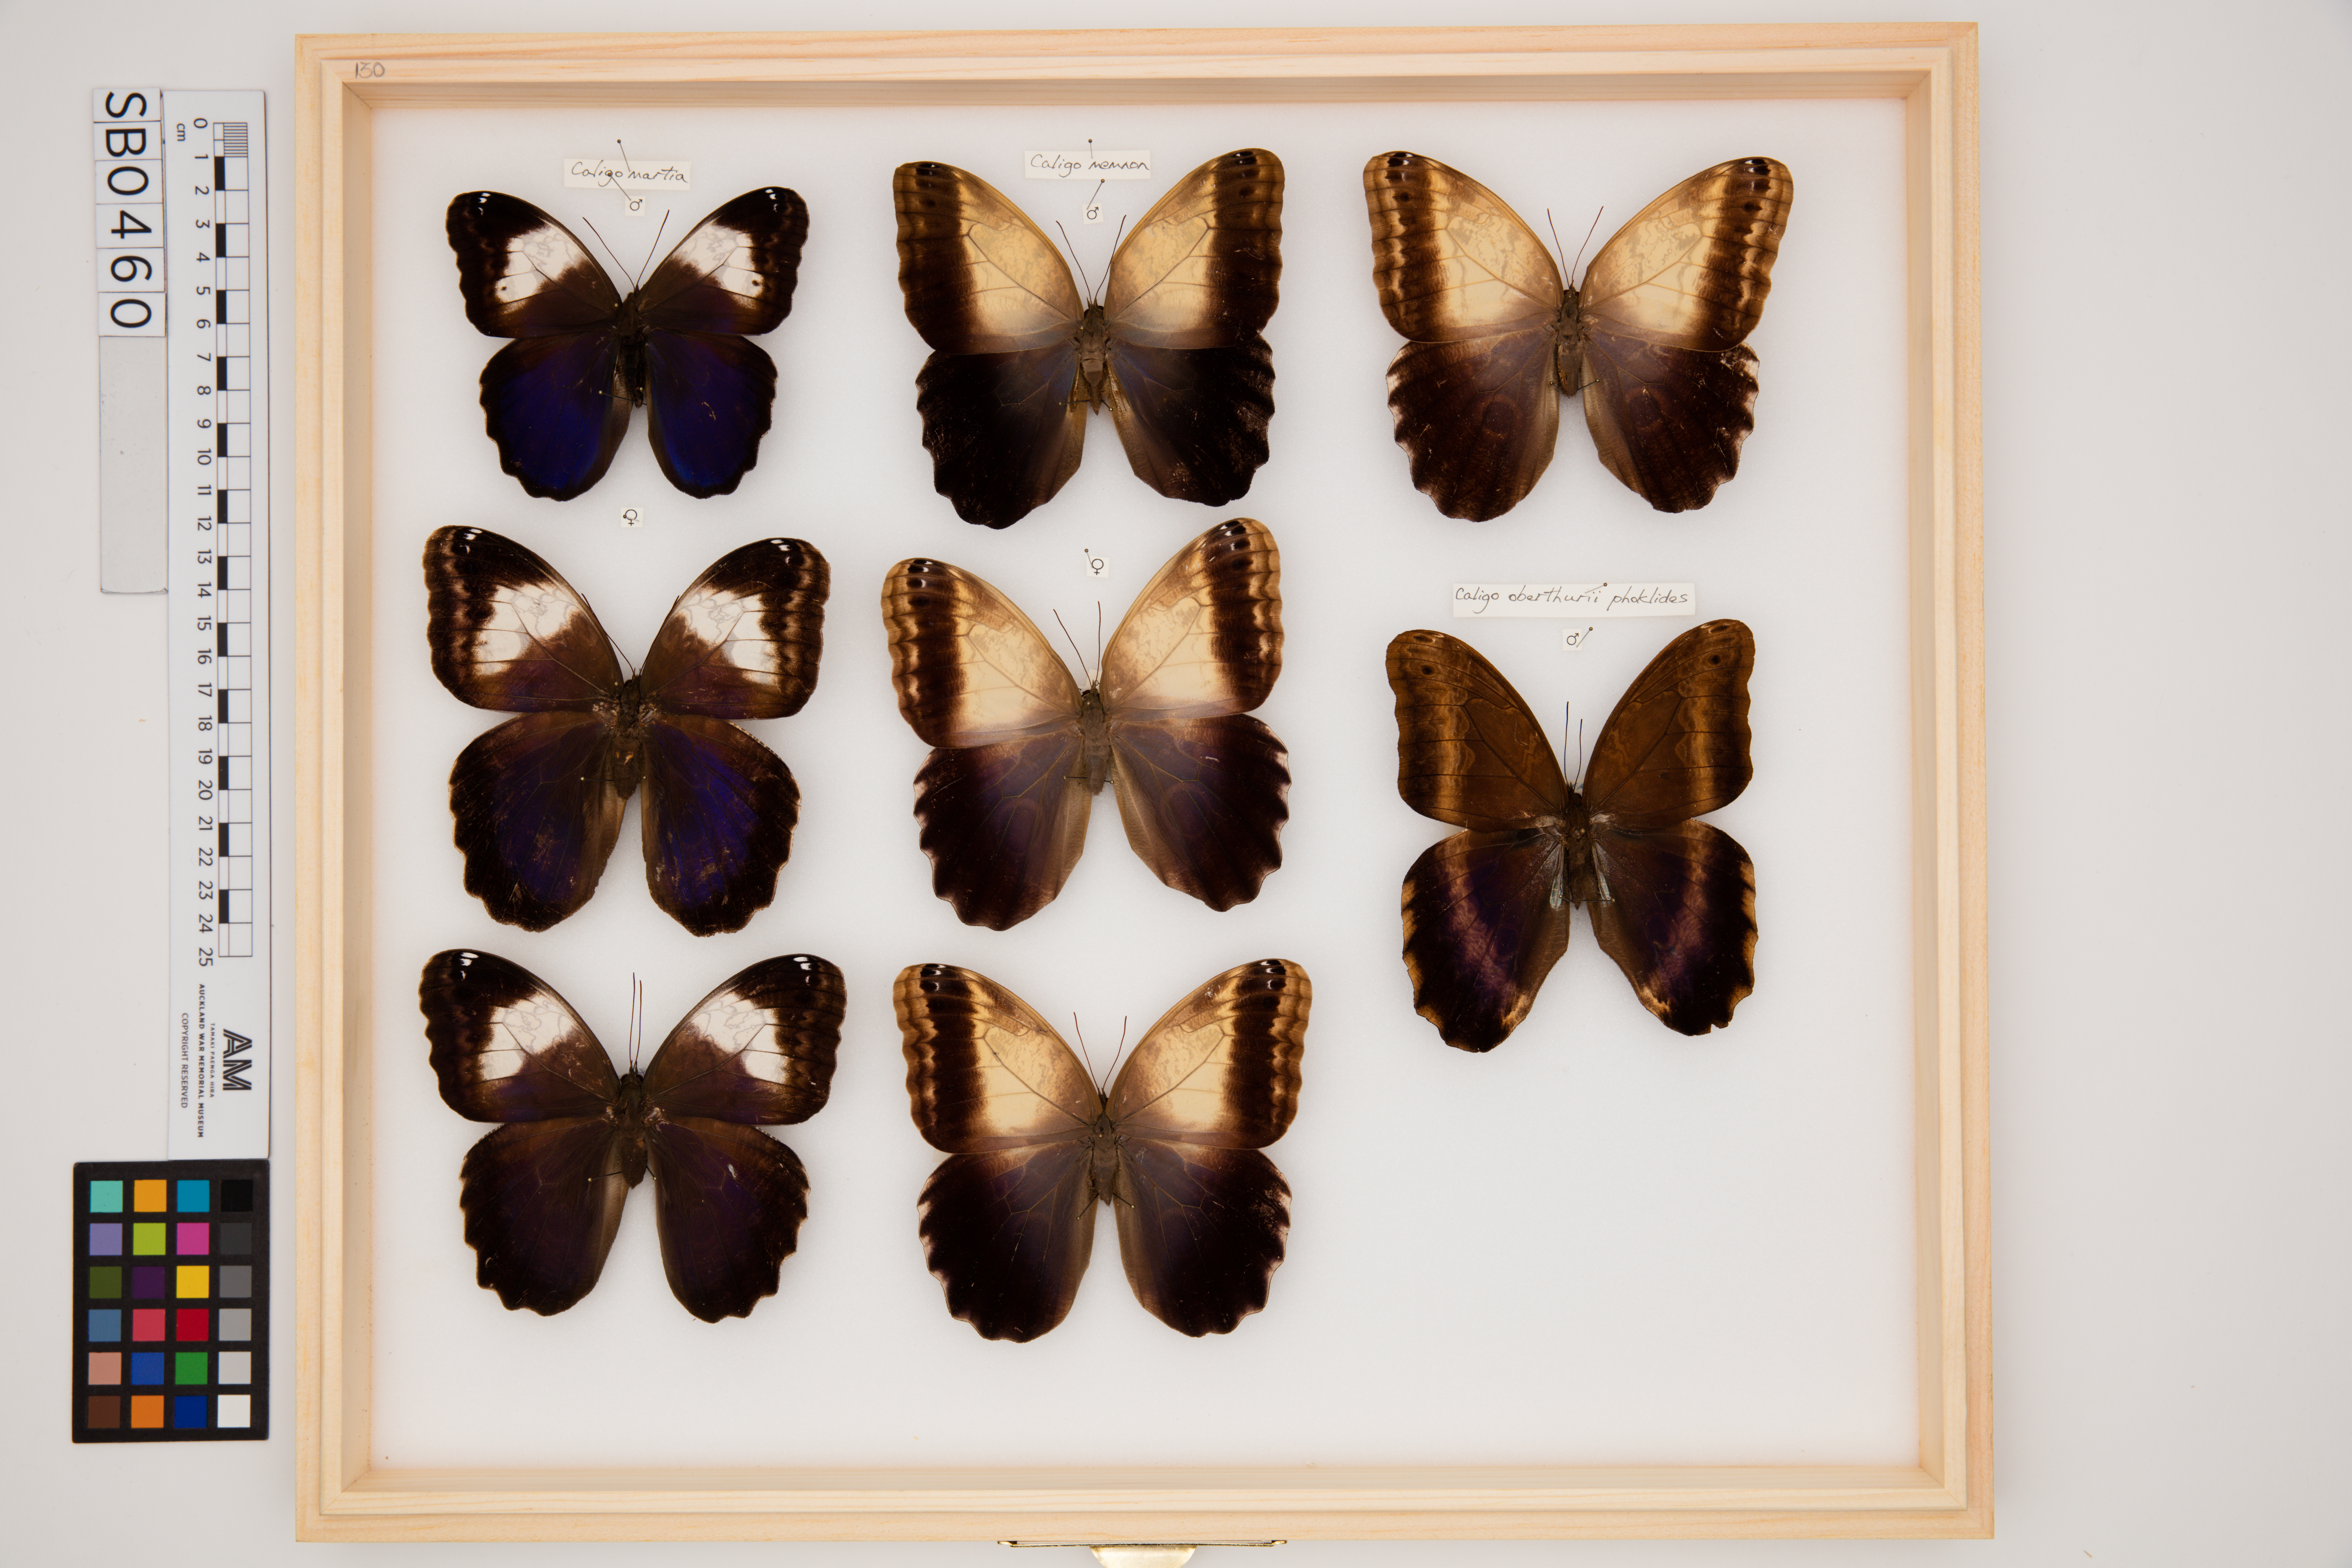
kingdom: Animalia
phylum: Arthropoda
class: Insecta
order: Lepidoptera
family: Nymphalidae
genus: Caligo
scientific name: Caligo memnon
